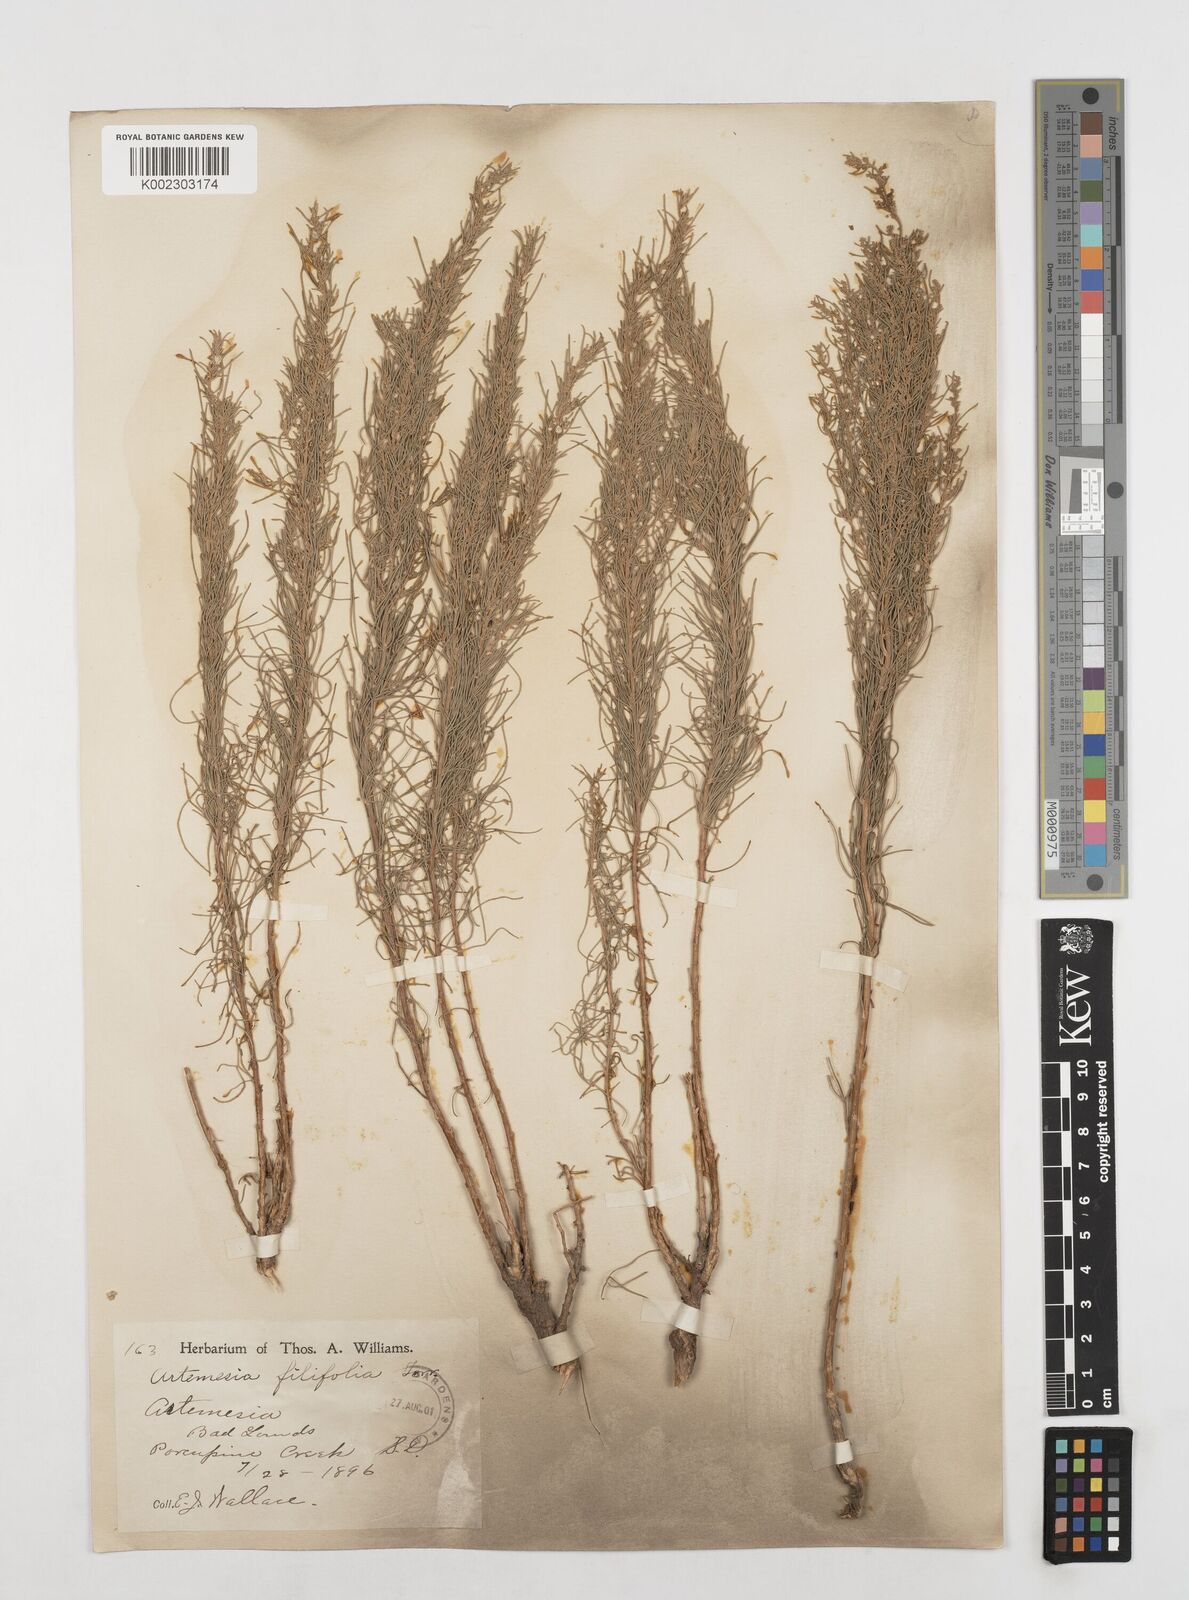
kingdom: Plantae
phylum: Tracheophyta
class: Magnoliopsida
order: Asterales
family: Asteraceae
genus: Artemisia
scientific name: Artemisia filifolia
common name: Sand-sage
